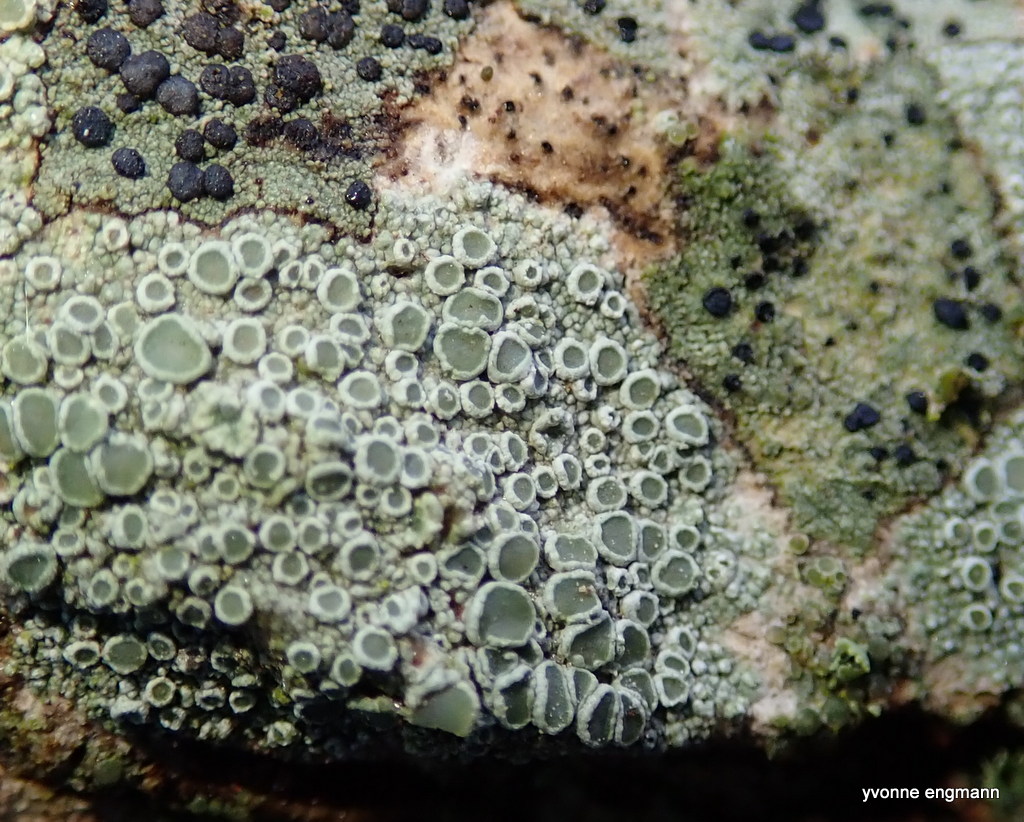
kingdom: Fungi
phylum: Ascomycota
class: Lecanoromycetes
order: Lecanorales
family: Lecanoraceae
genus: Lecanora
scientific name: Lecanora chlarotera
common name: brun kantskivelav
